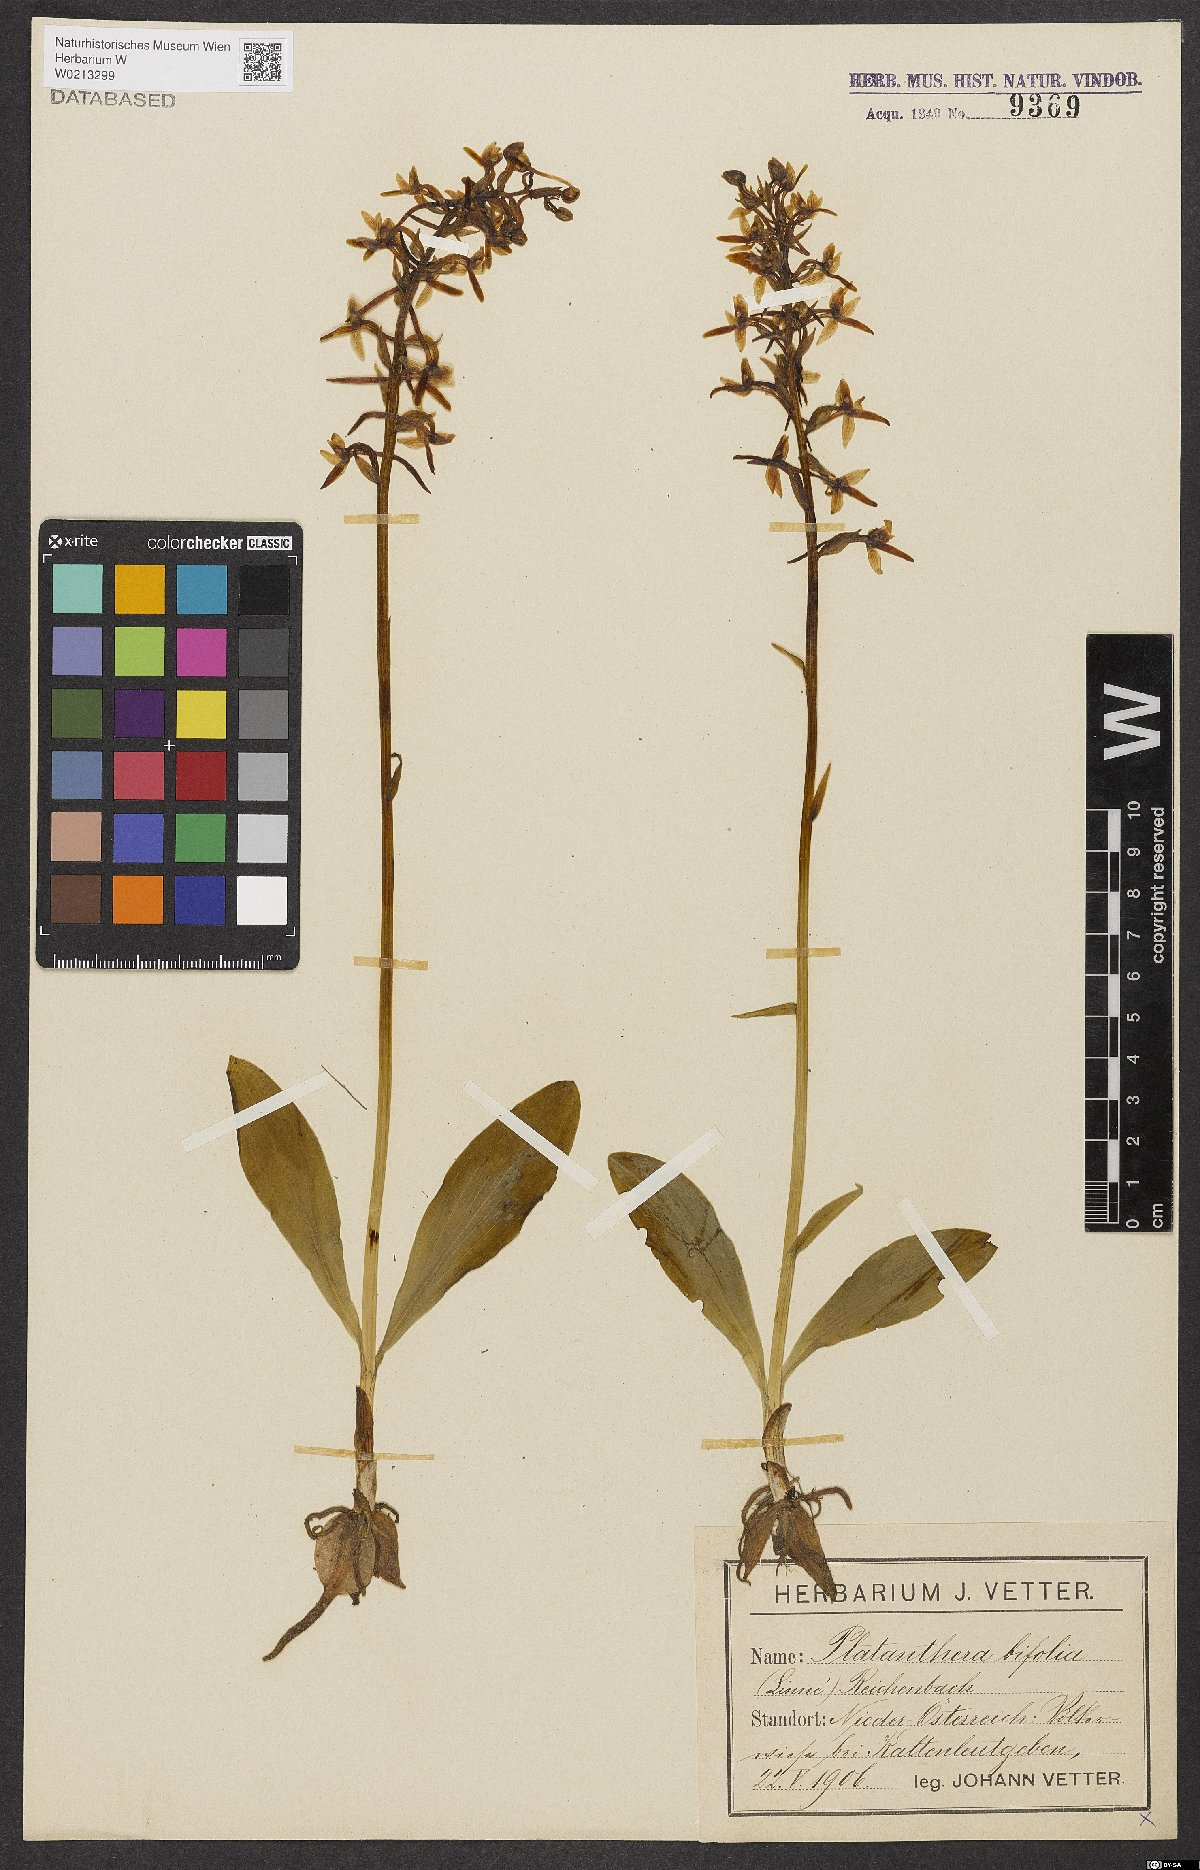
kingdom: Plantae
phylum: Tracheophyta
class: Liliopsida
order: Asparagales
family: Orchidaceae
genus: Platanthera
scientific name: Platanthera bifolia
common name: Lesser butterfly-orchid
